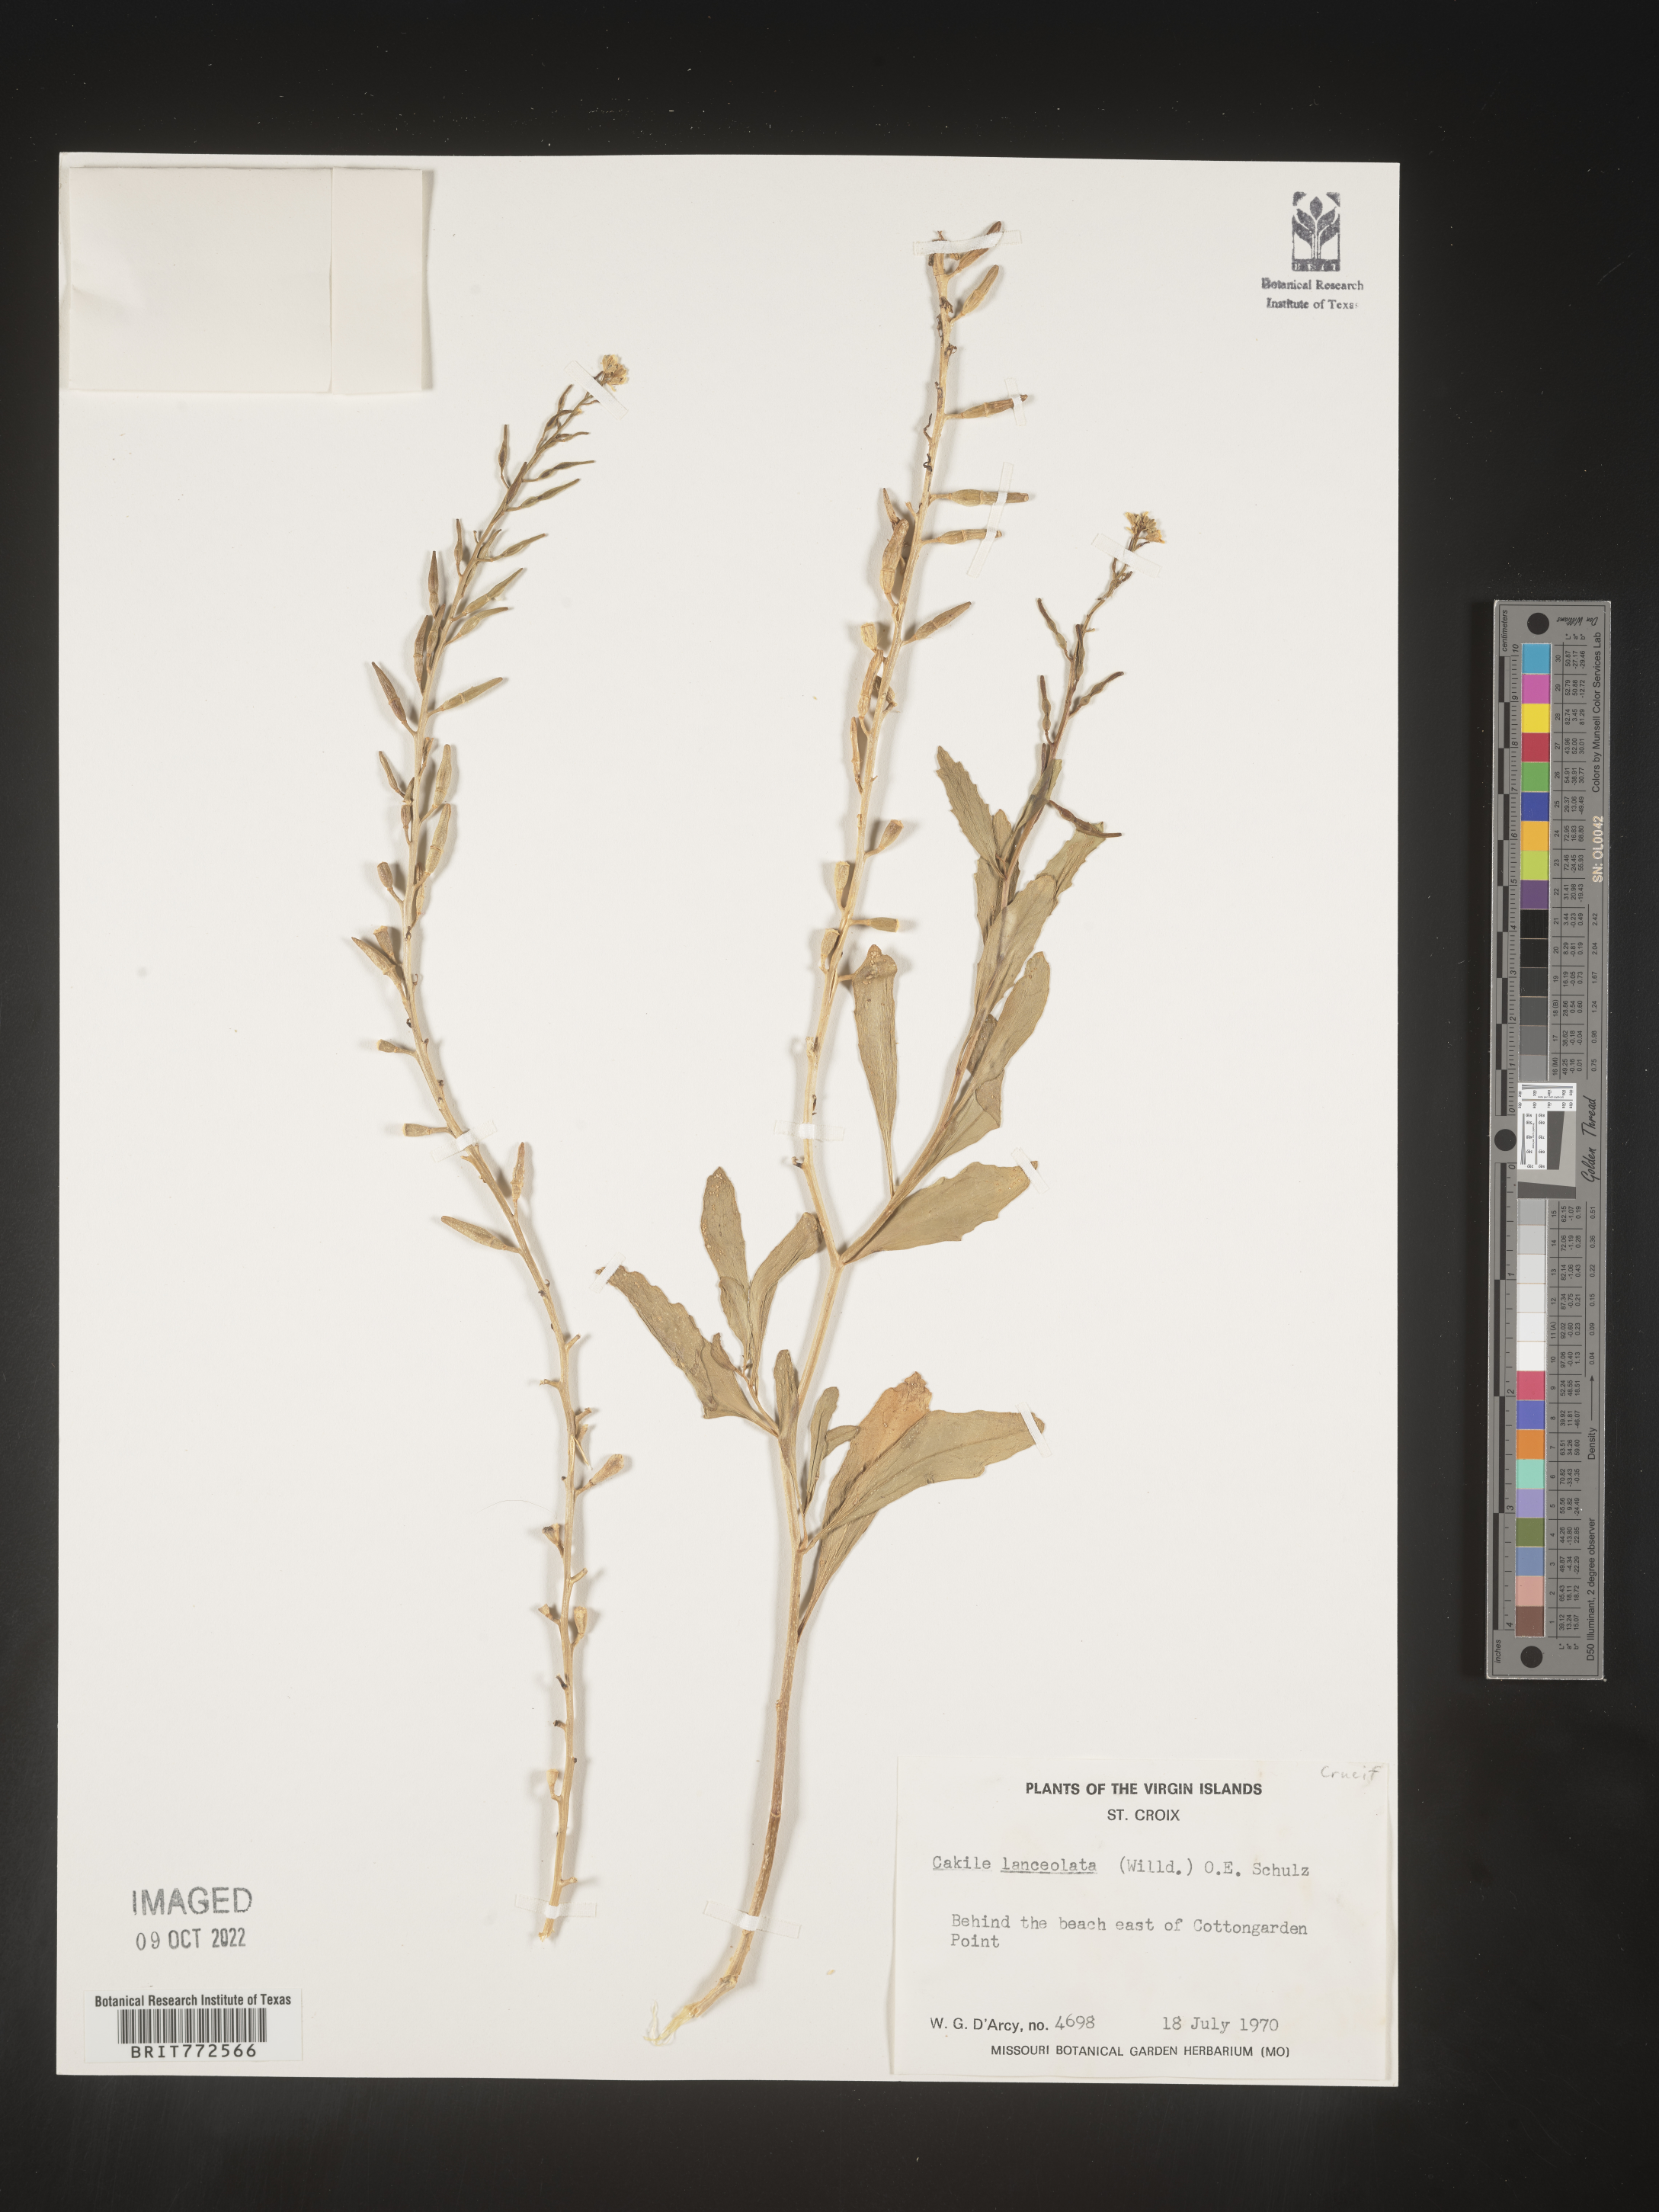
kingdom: Plantae
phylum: Tracheophyta
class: Magnoliopsida
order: Brassicales
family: Brassicaceae
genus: Cakile
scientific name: Cakile
